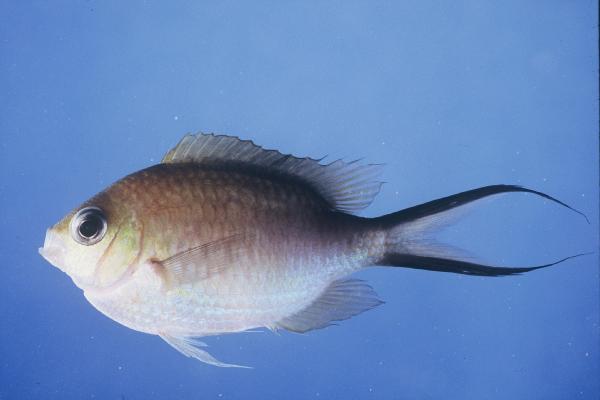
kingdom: Animalia
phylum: Chordata
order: Perciformes
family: Pomacentridae
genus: Chromis
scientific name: Chromis ternatensis
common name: Ternate chromis
